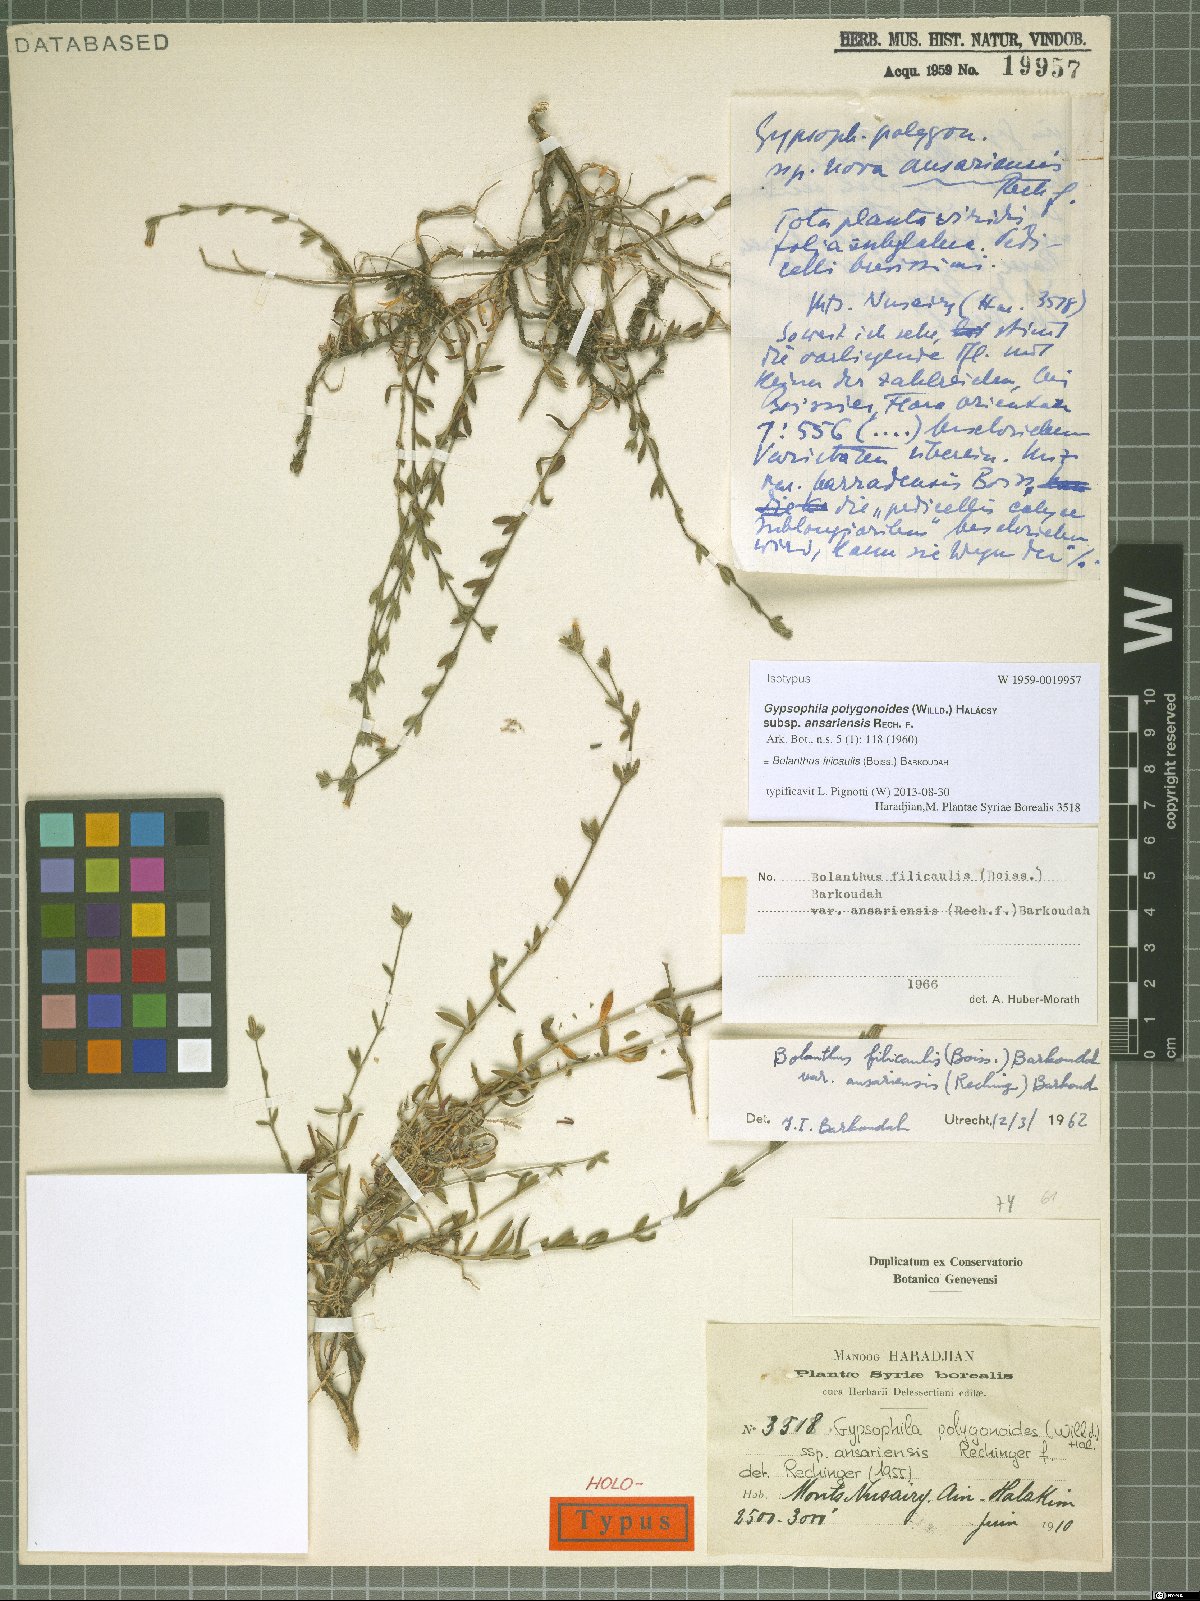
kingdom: Plantae
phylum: Tracheophyta
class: Magnoliopsida
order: Caryophyllales
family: Caryophyllaceae
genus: Bolanthus
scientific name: Bolanthus filicaulis
